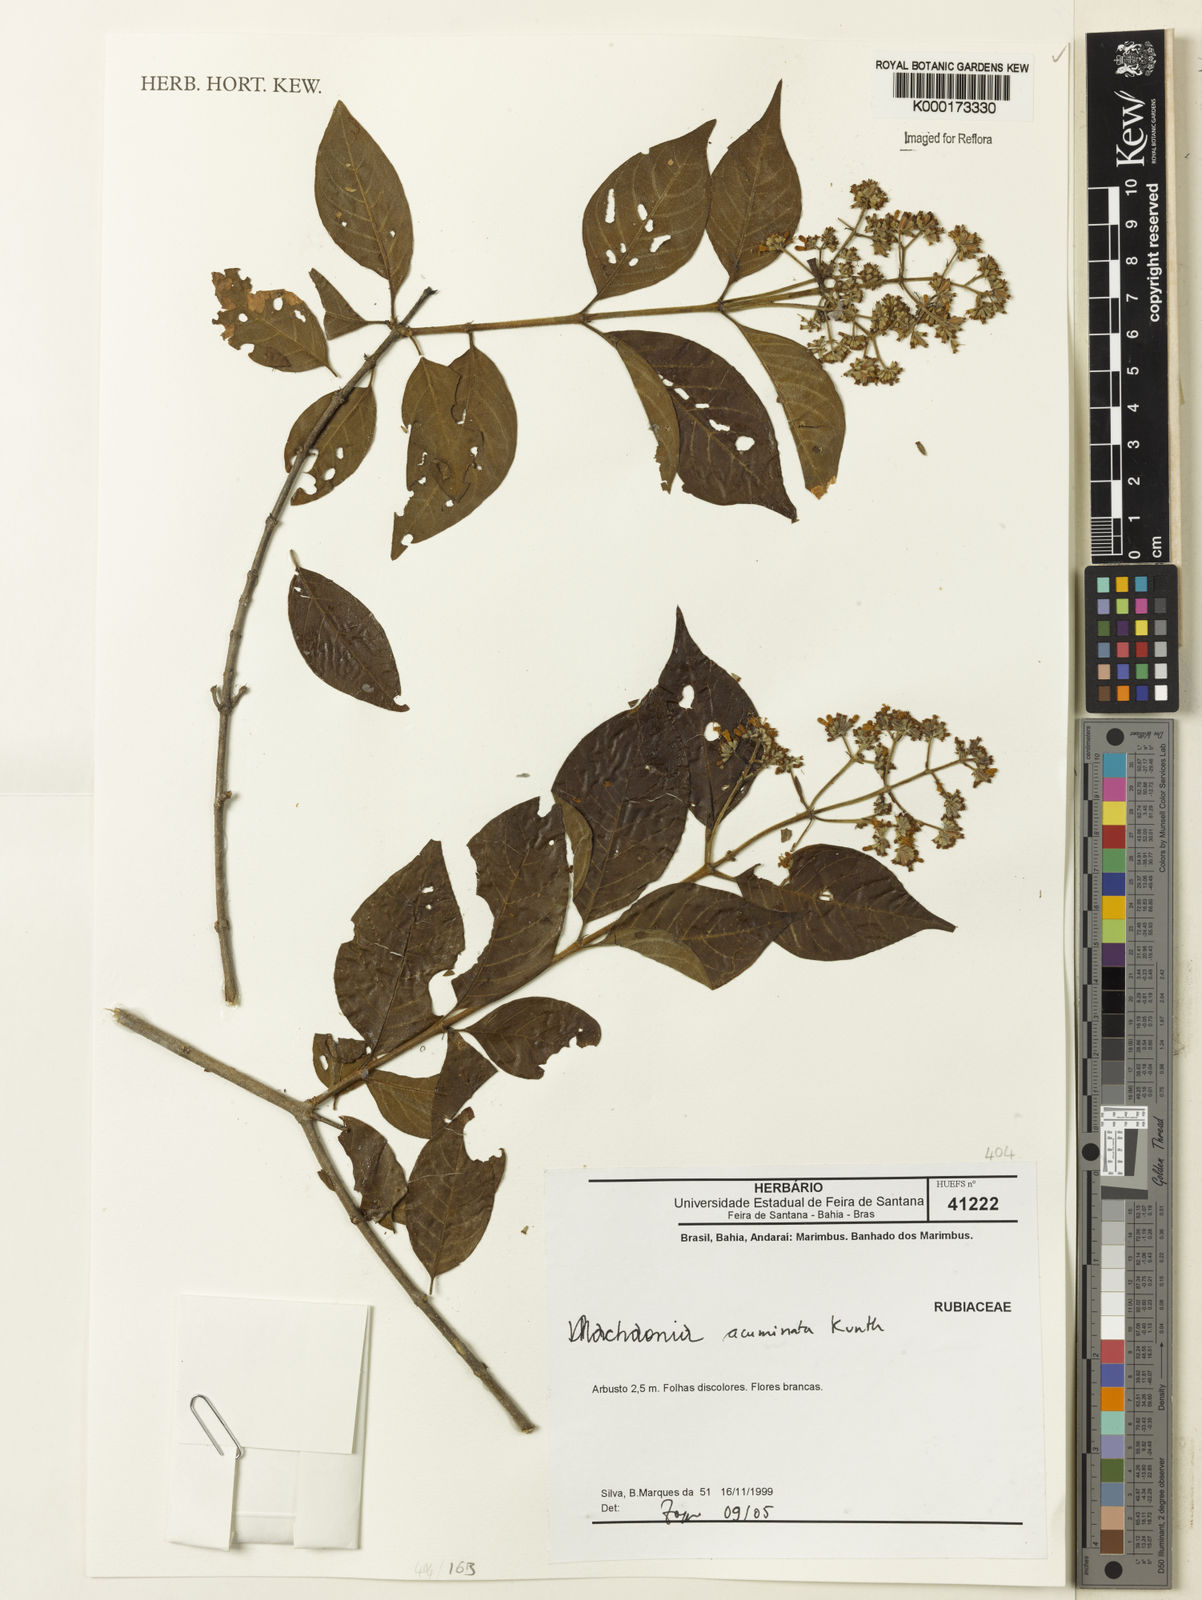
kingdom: Plantae
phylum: Tracheophyta
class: Magnoliopsida
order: Gentianales
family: Rubiaceae
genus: Machaonia
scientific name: Machaonia acuminata
